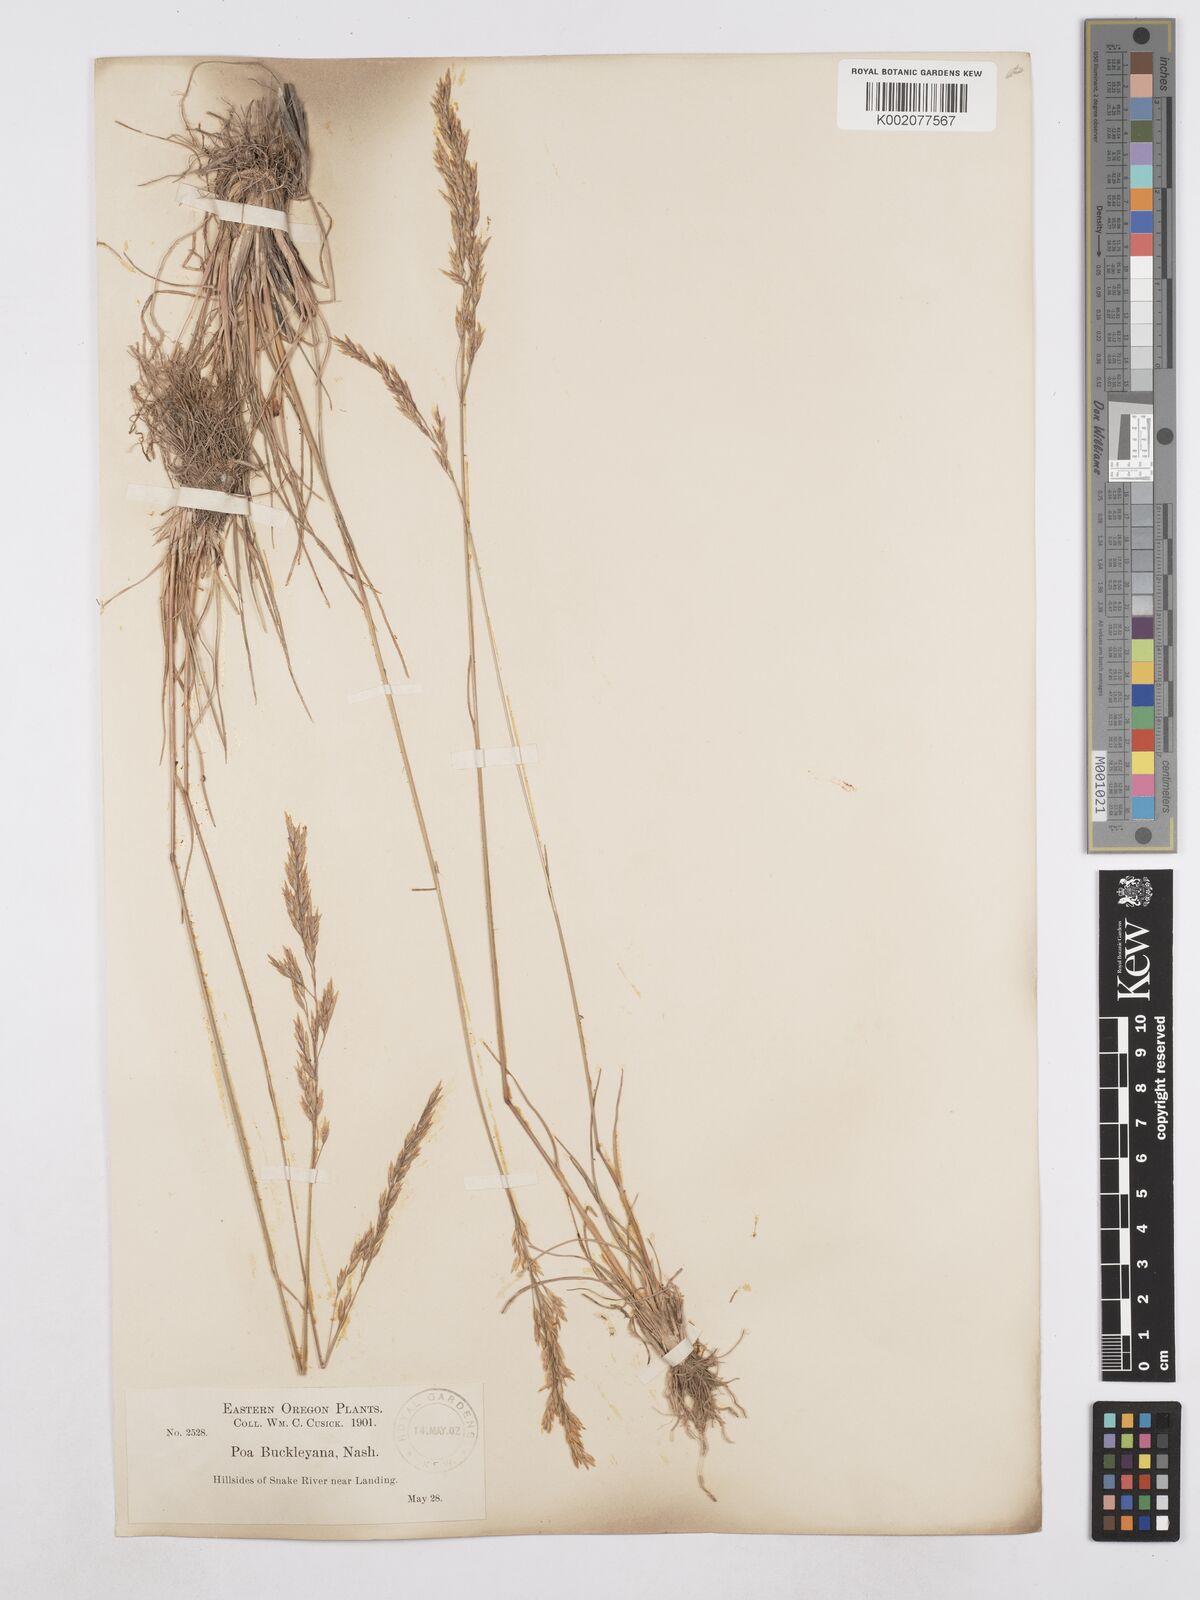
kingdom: Plantae
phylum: Tracheophyta
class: Liliopsida
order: Poales
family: Poaceae
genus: Poa
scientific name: Poa secunda
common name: Sandberg bluegrass
